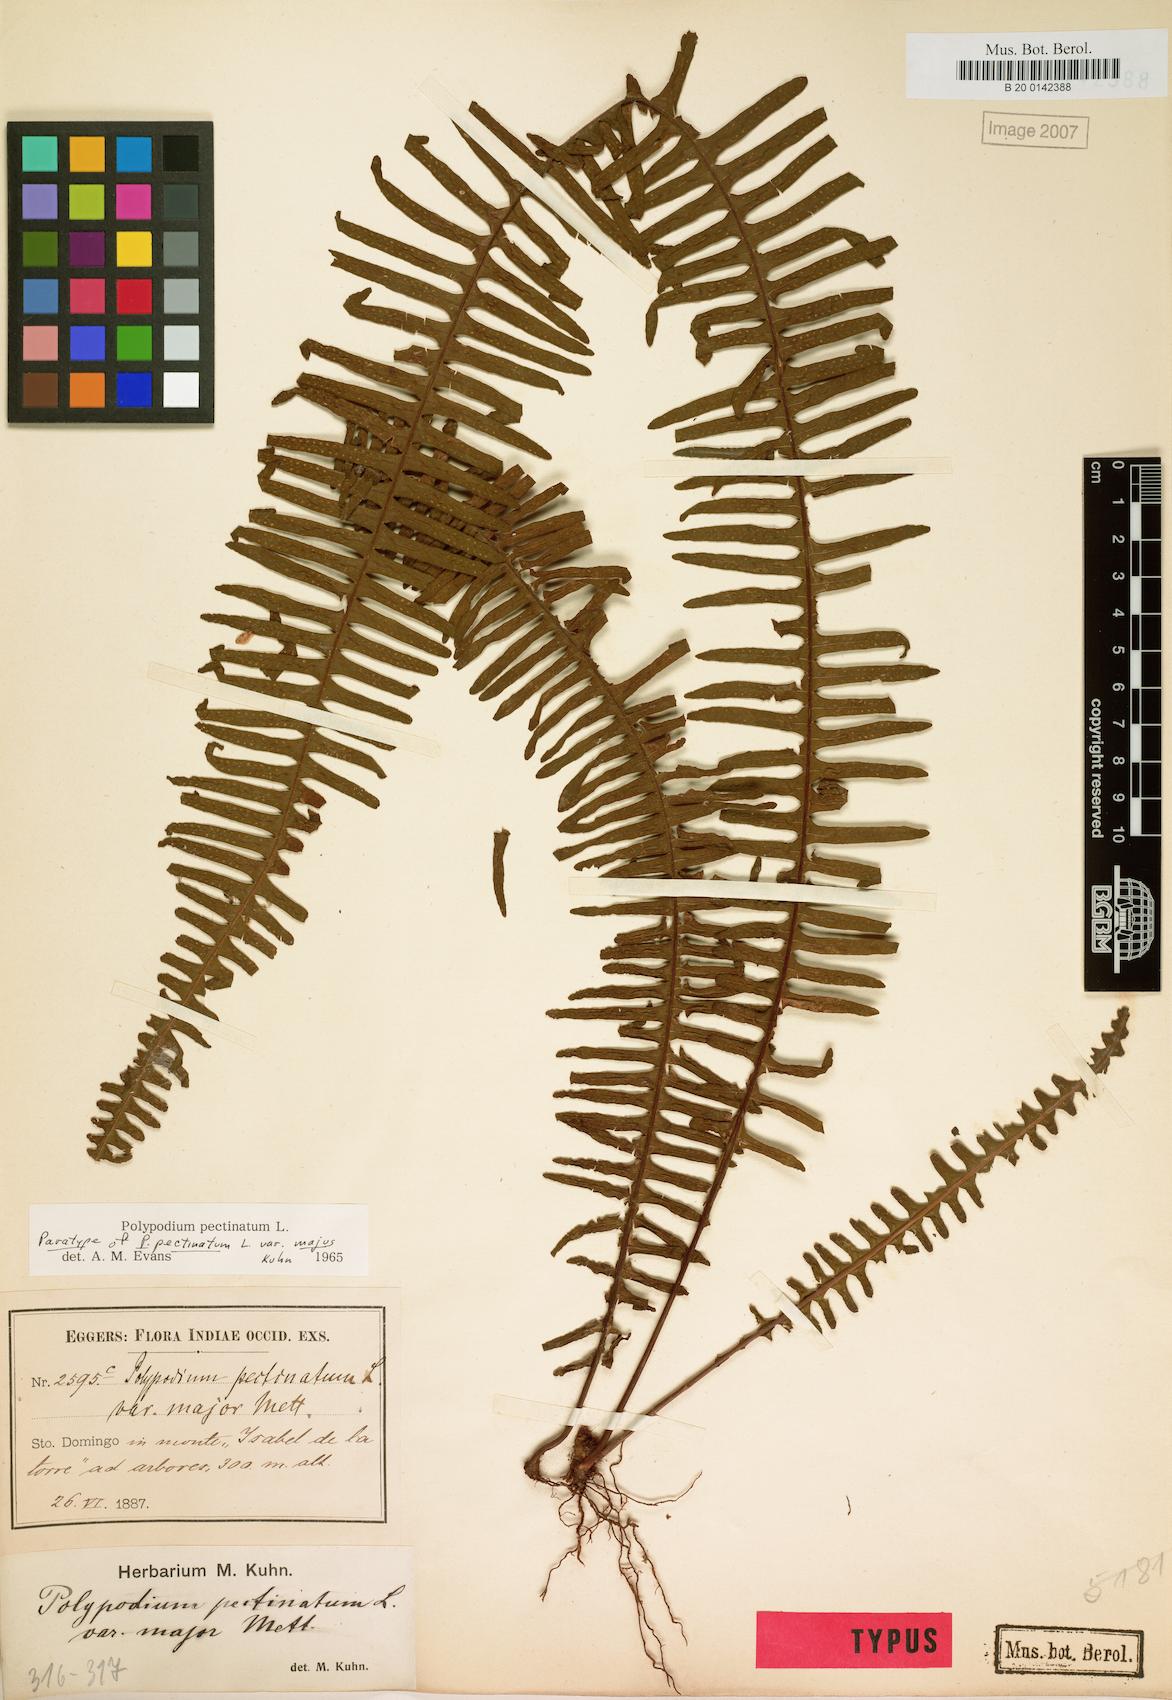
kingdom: Plantae
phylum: Tracheophyta
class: Polypodiopsida
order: Polypodiales
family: Polypodiaceae
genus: Pecluma
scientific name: Pecluma pectinata
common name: Msasa fern
